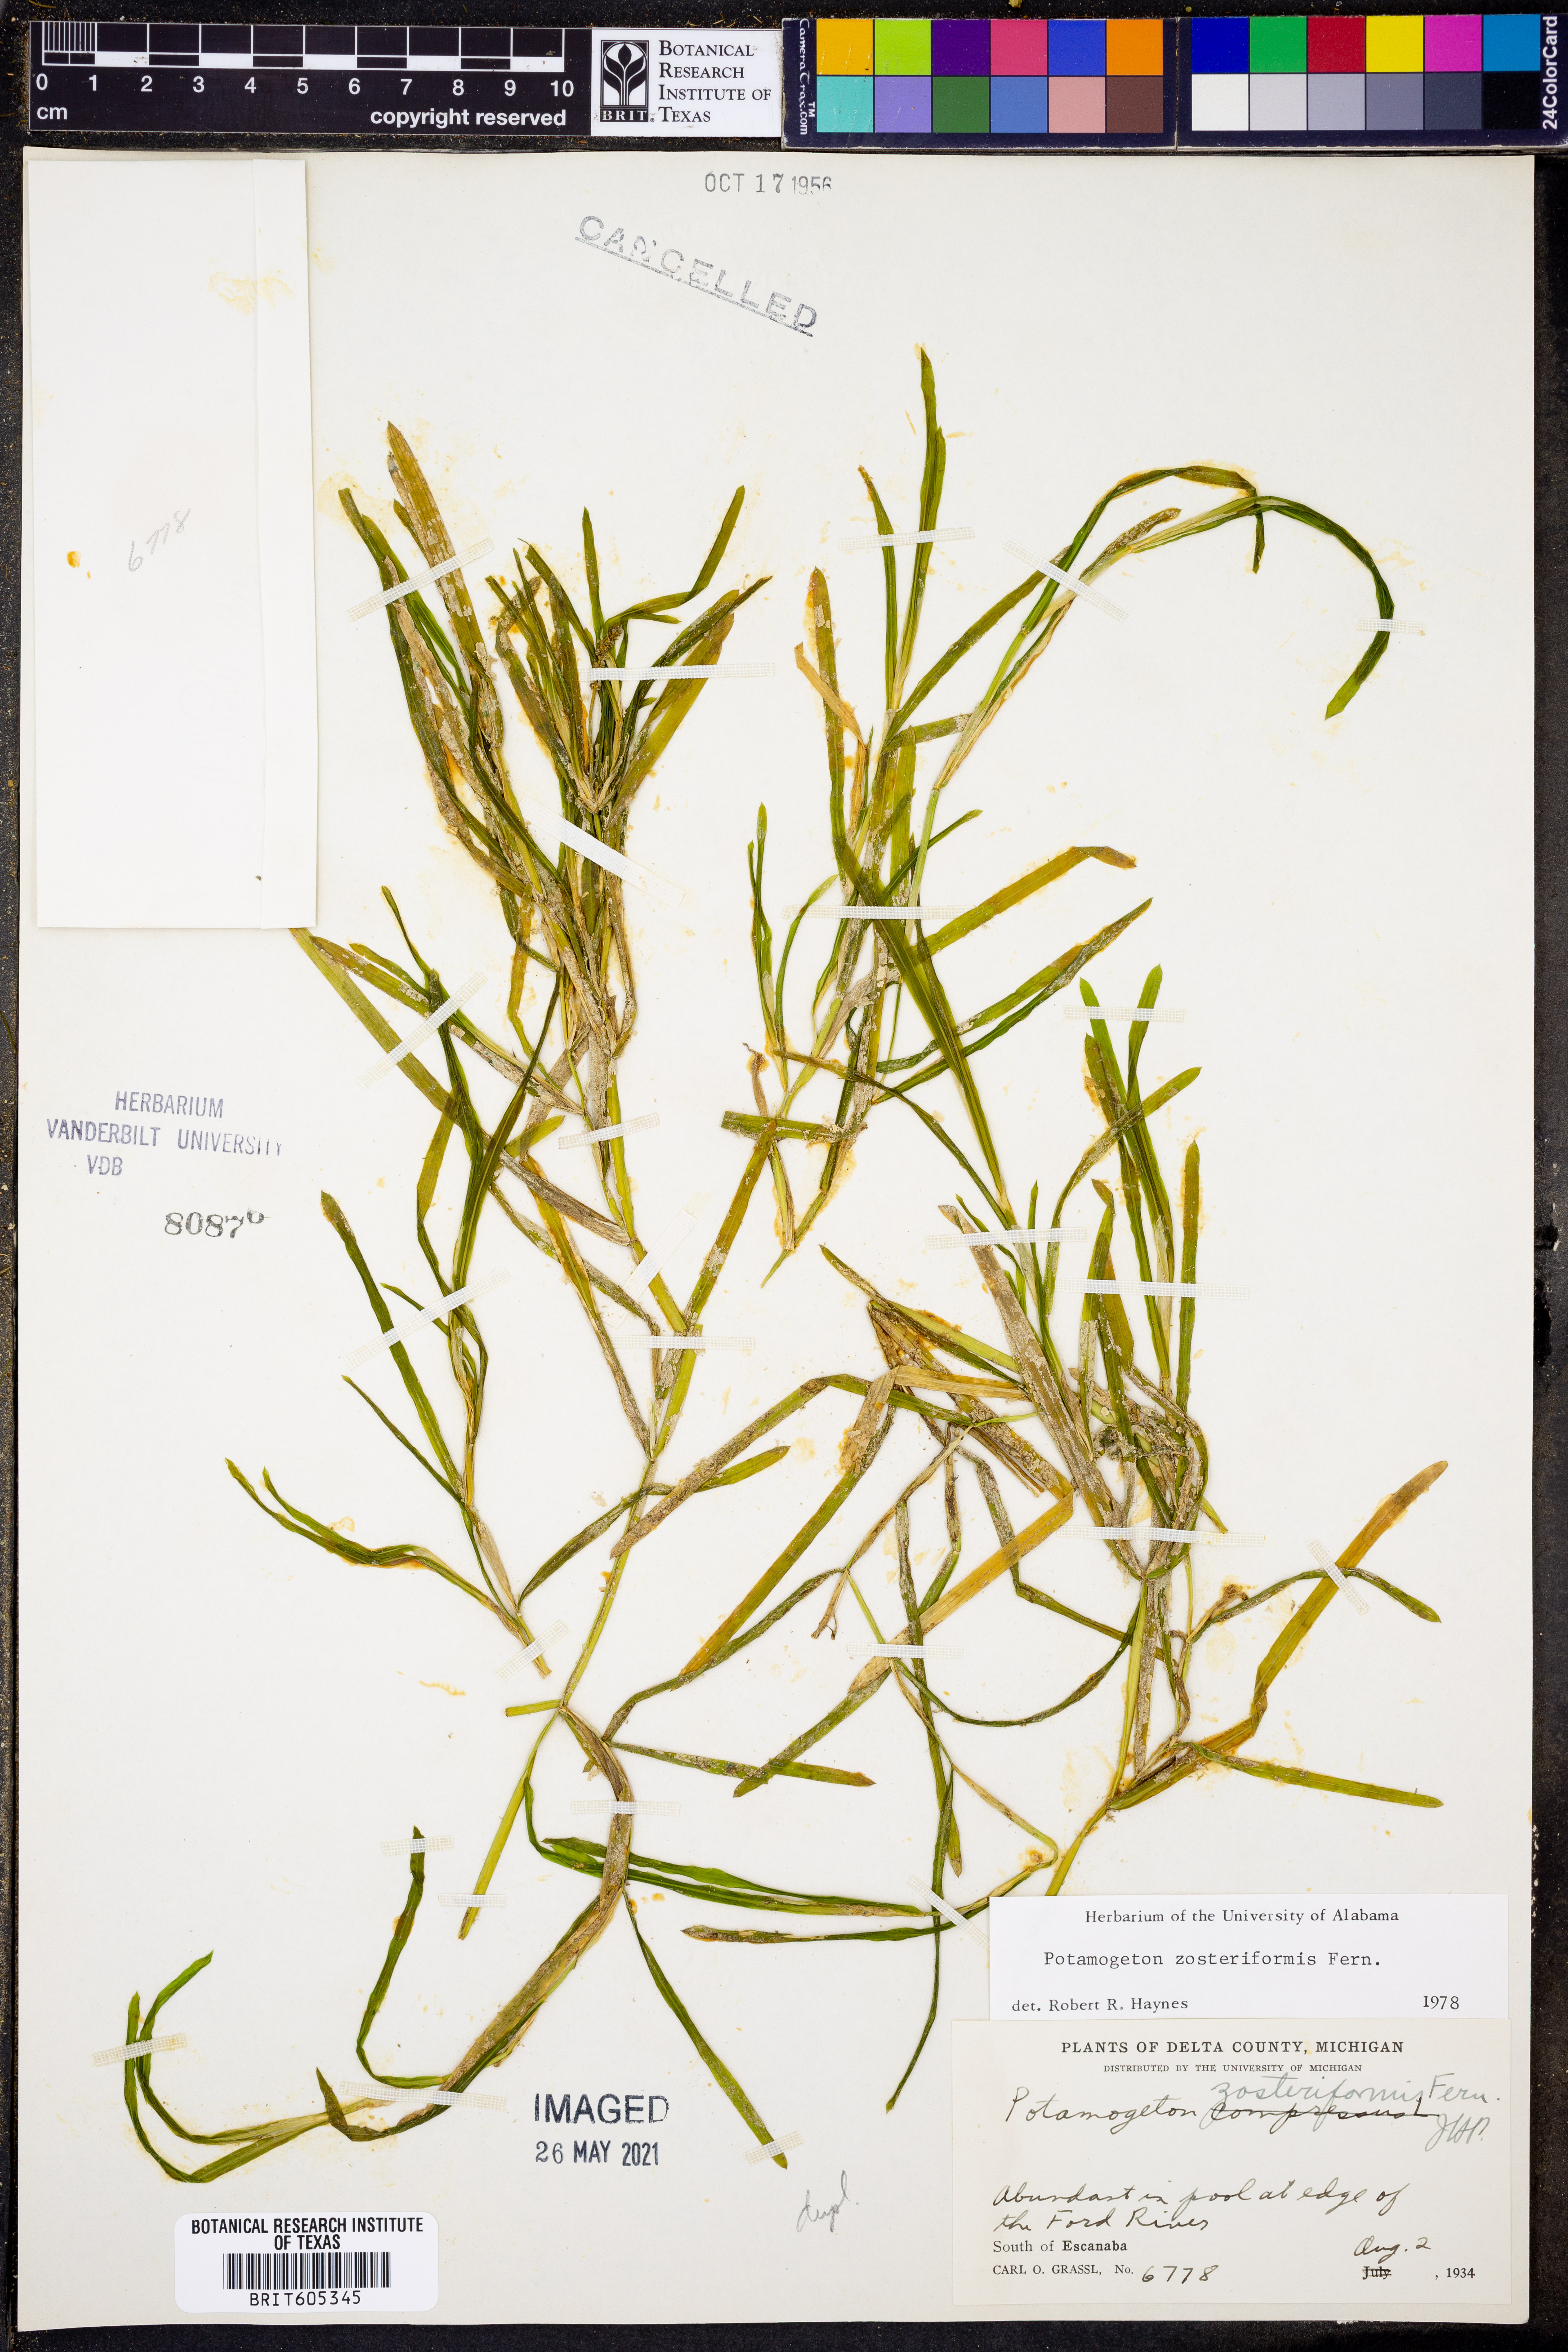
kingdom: Plantae
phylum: Tracheophyta
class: Liliopsida
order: Alismatales
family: Potamogetonaceae
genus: Potamogeton
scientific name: Potamogeton zosteriformis
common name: Eelgrass pondweed
